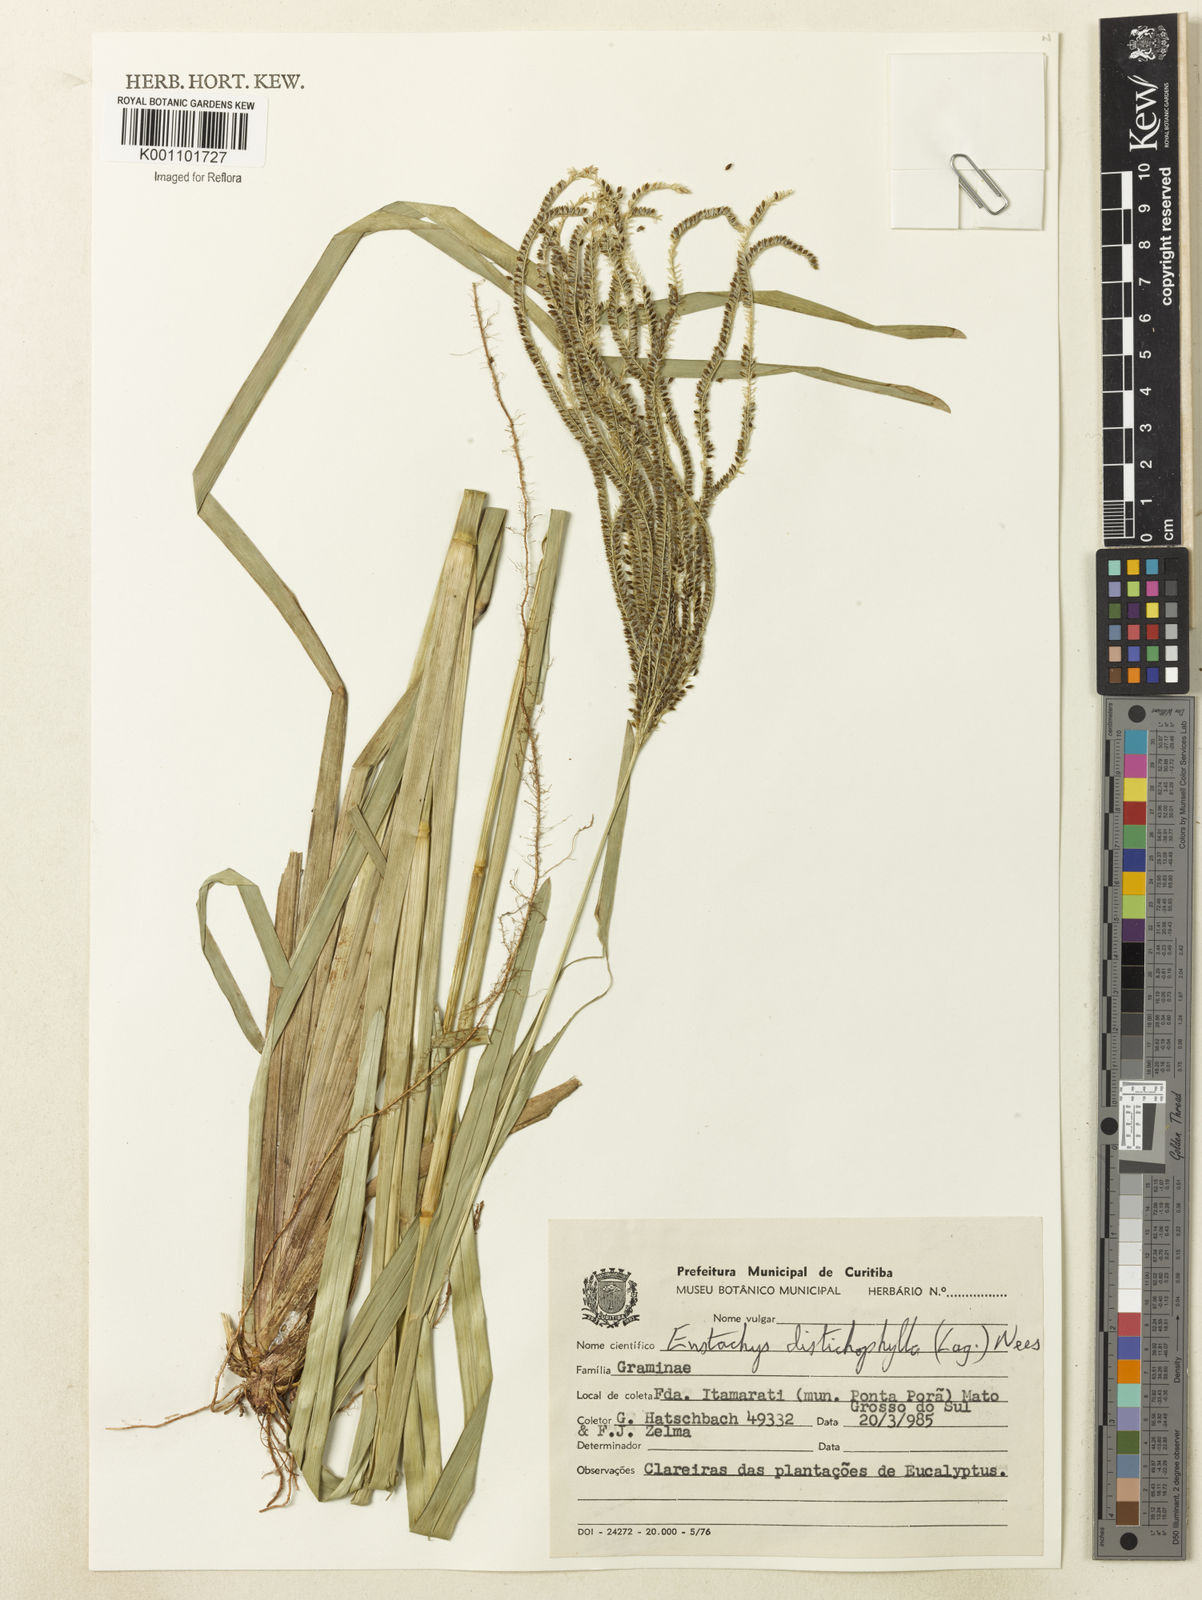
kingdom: Plantae
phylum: Tracheophyta
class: Liliopsida
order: Poales
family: Poaceae
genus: Eustachys
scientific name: Eustachys distichophylla
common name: Weeping fingergrass
